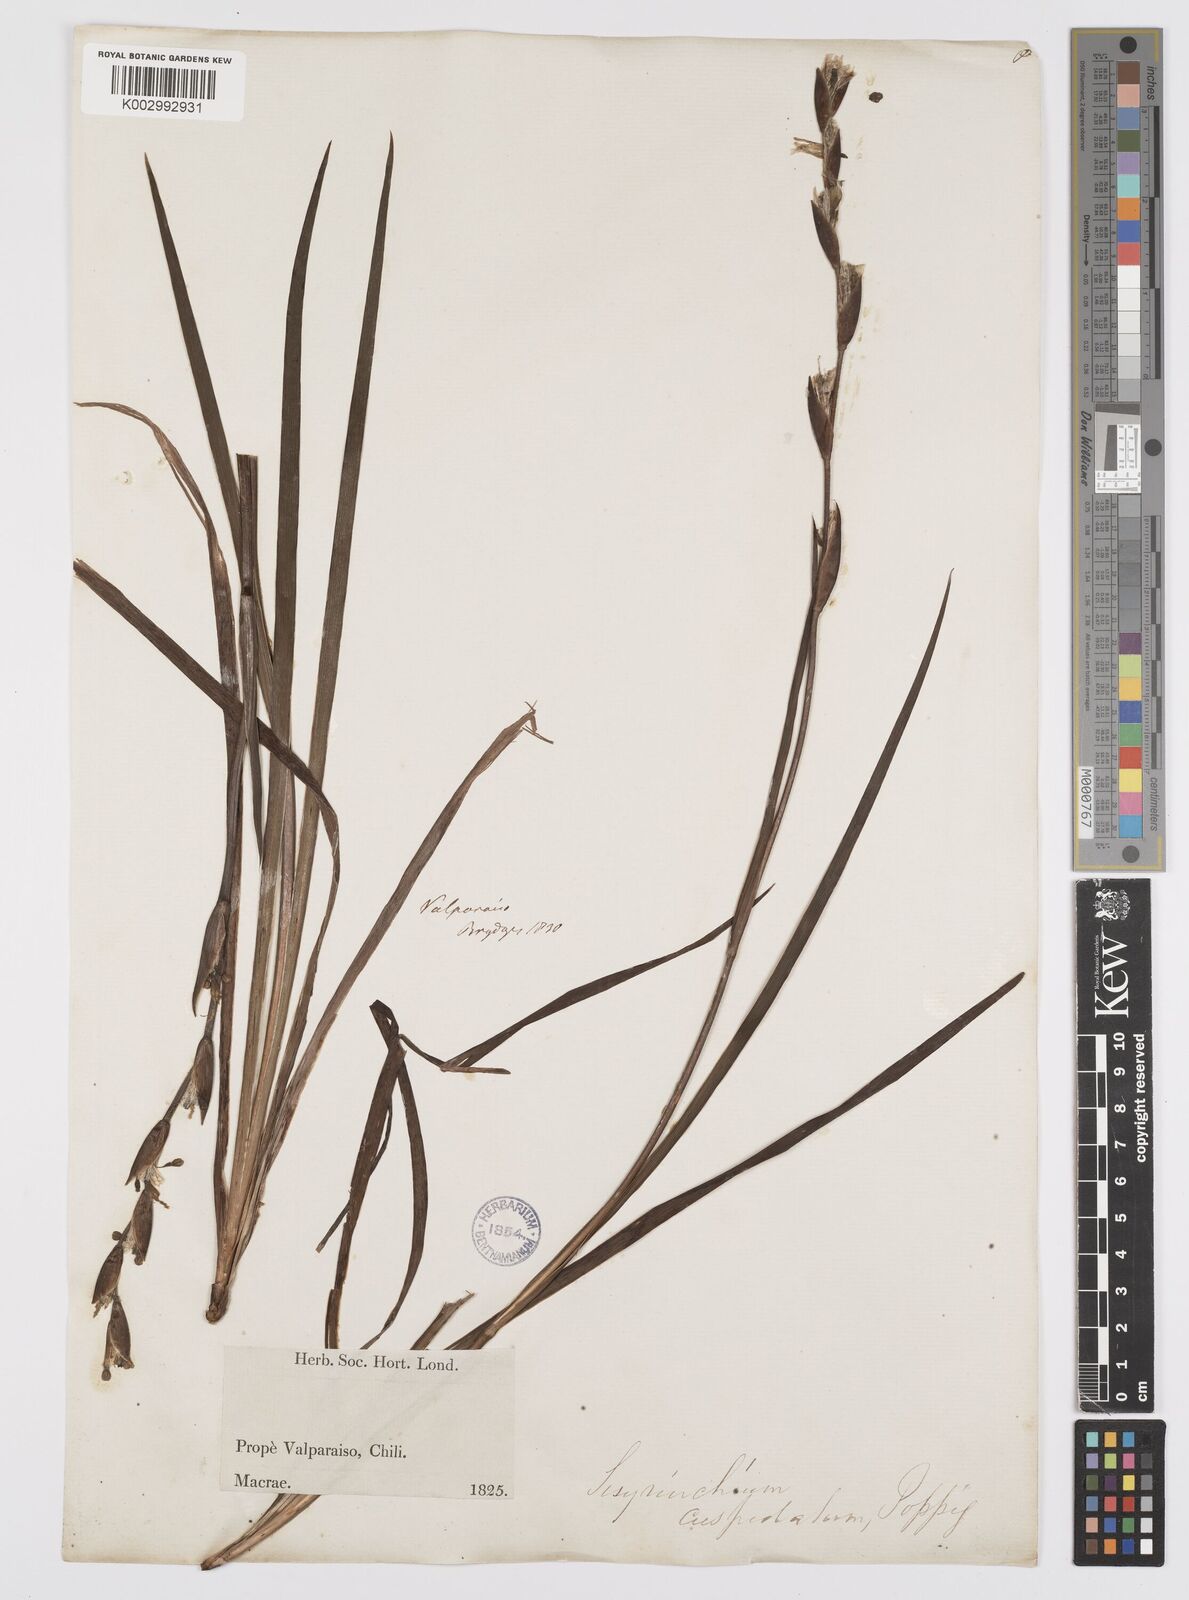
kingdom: Plantae
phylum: Tracheophyta
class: Liliopsida
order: Asparagales
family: Iridaceae
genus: Sisyrinchium
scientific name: Sisyrinchium cuspidatum
